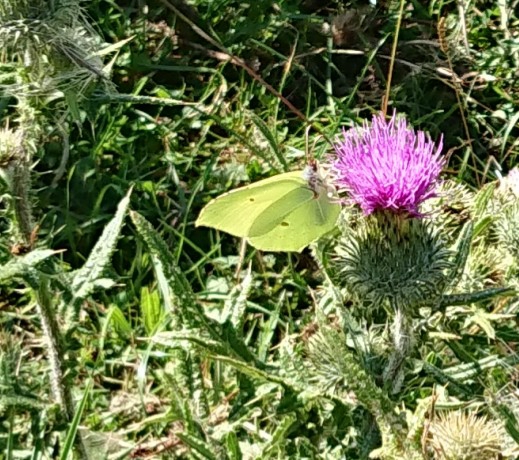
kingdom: Animalia
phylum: Arthropoda
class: Insecta
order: Lepidoptera
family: Pieridae
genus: Gonepteryx
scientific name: Gonepteryx rhamni
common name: Citronsommerfugl
